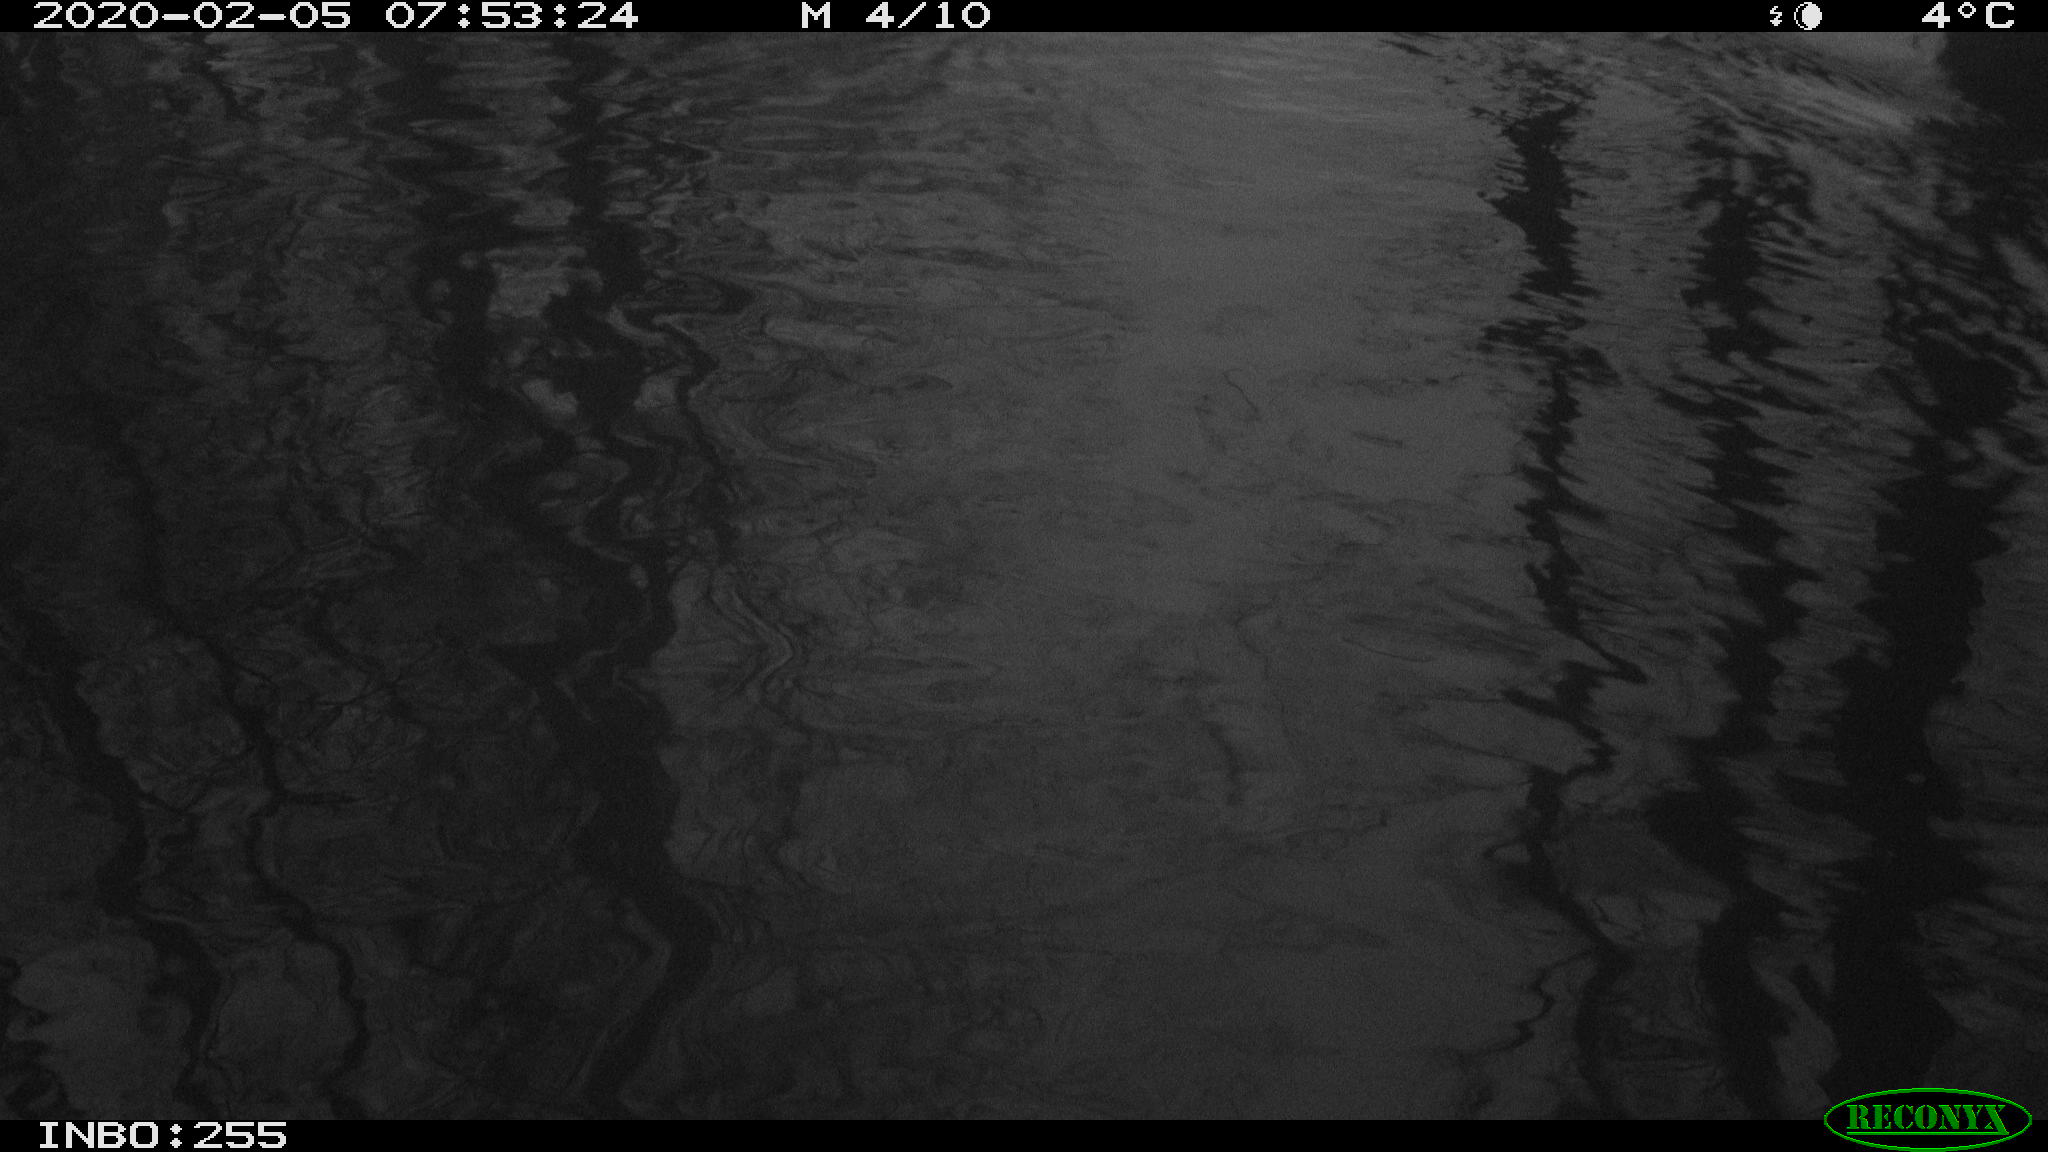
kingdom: Animalia
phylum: Chordata
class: Aves
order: Gruiformes
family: Rallidae
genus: Fulica
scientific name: Fulica atra
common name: Eurasian coot
